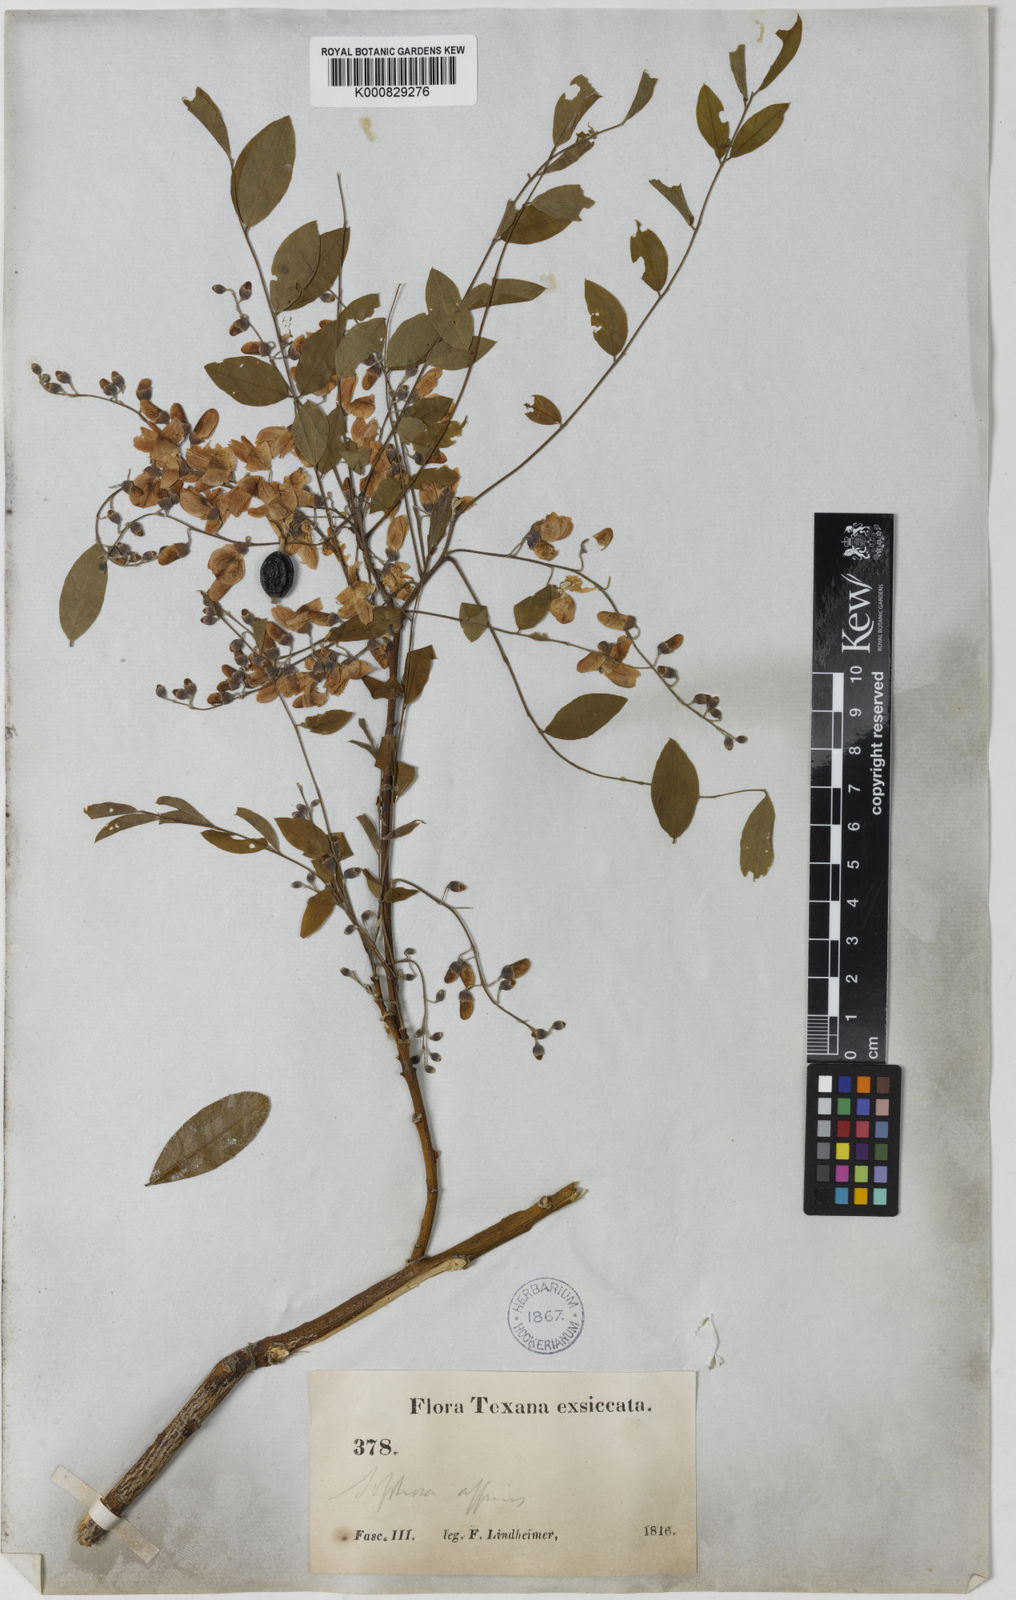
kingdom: Plantae
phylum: Tracheophyta
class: Magnoliopsida
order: Fabales
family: Fabaceae
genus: Styphnolobium
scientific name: Styphnolobium affine
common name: Texas sophora
